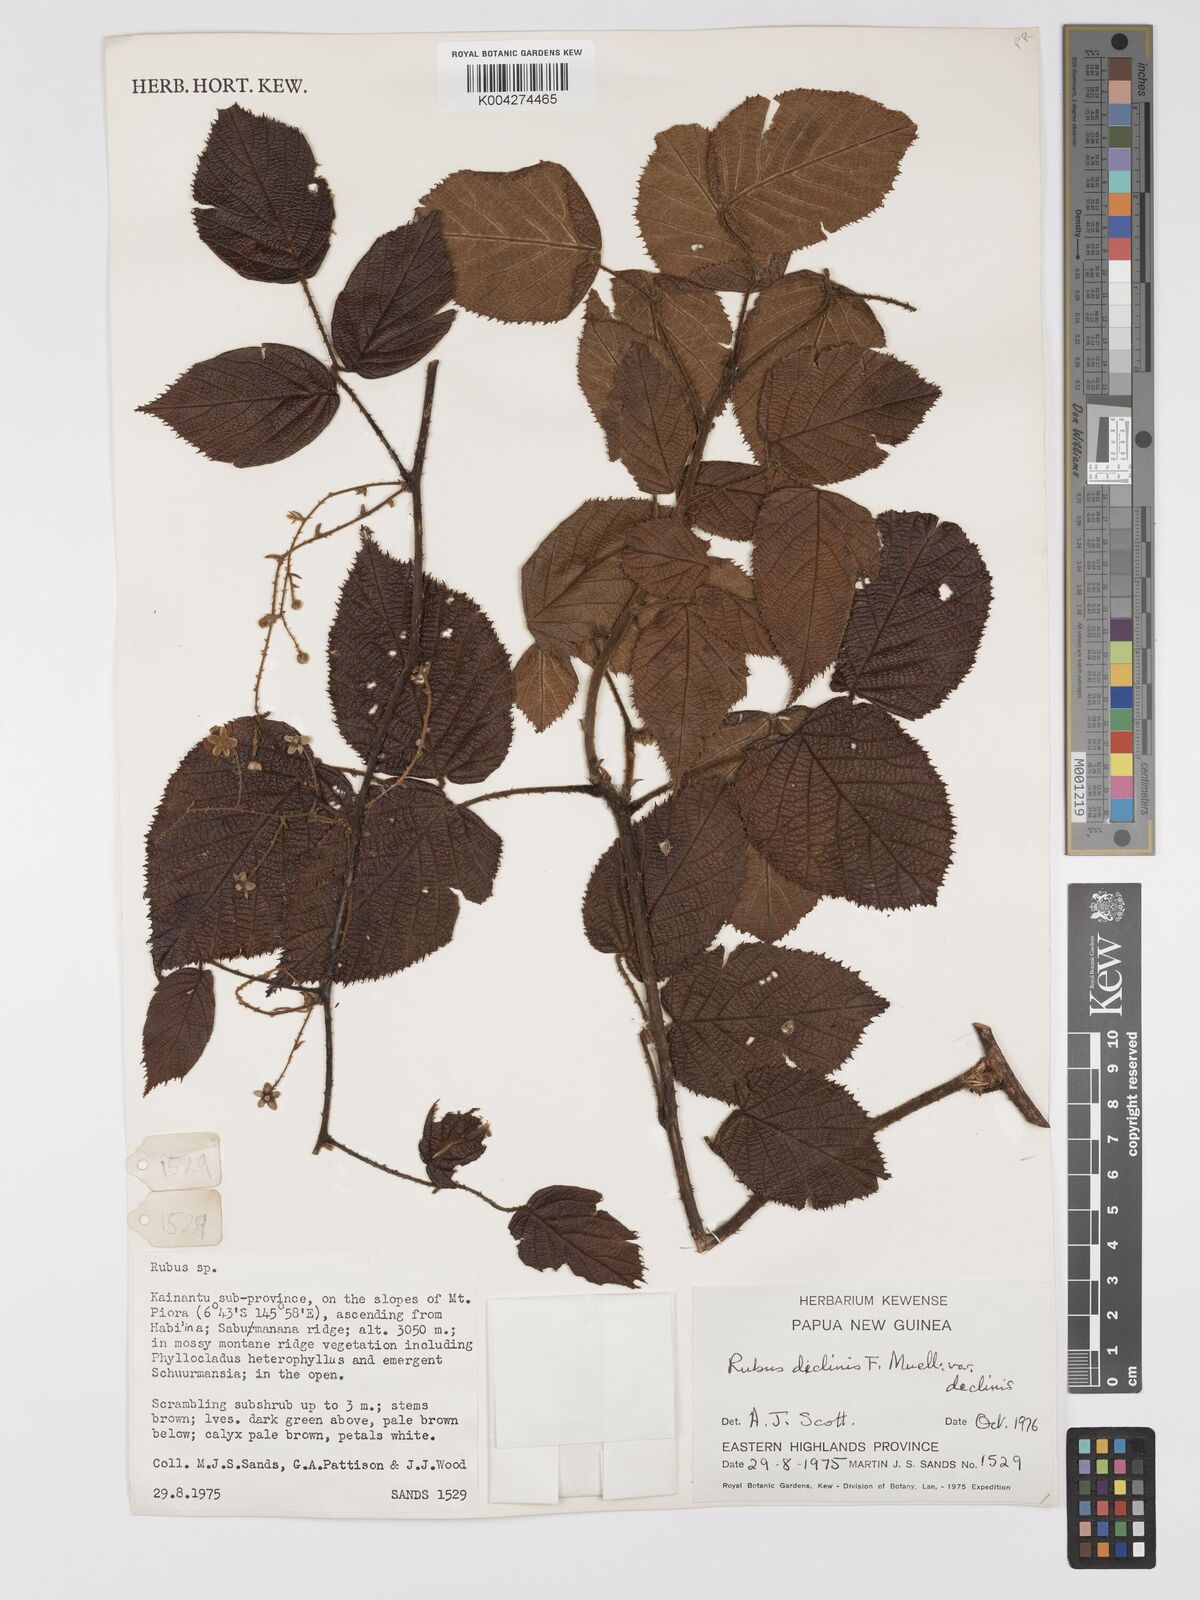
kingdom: Plantae
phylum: Tracheophyta
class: Magnoliopsida
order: Rosales
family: Rosaceae
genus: Rubus
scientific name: Rubus diclinis
